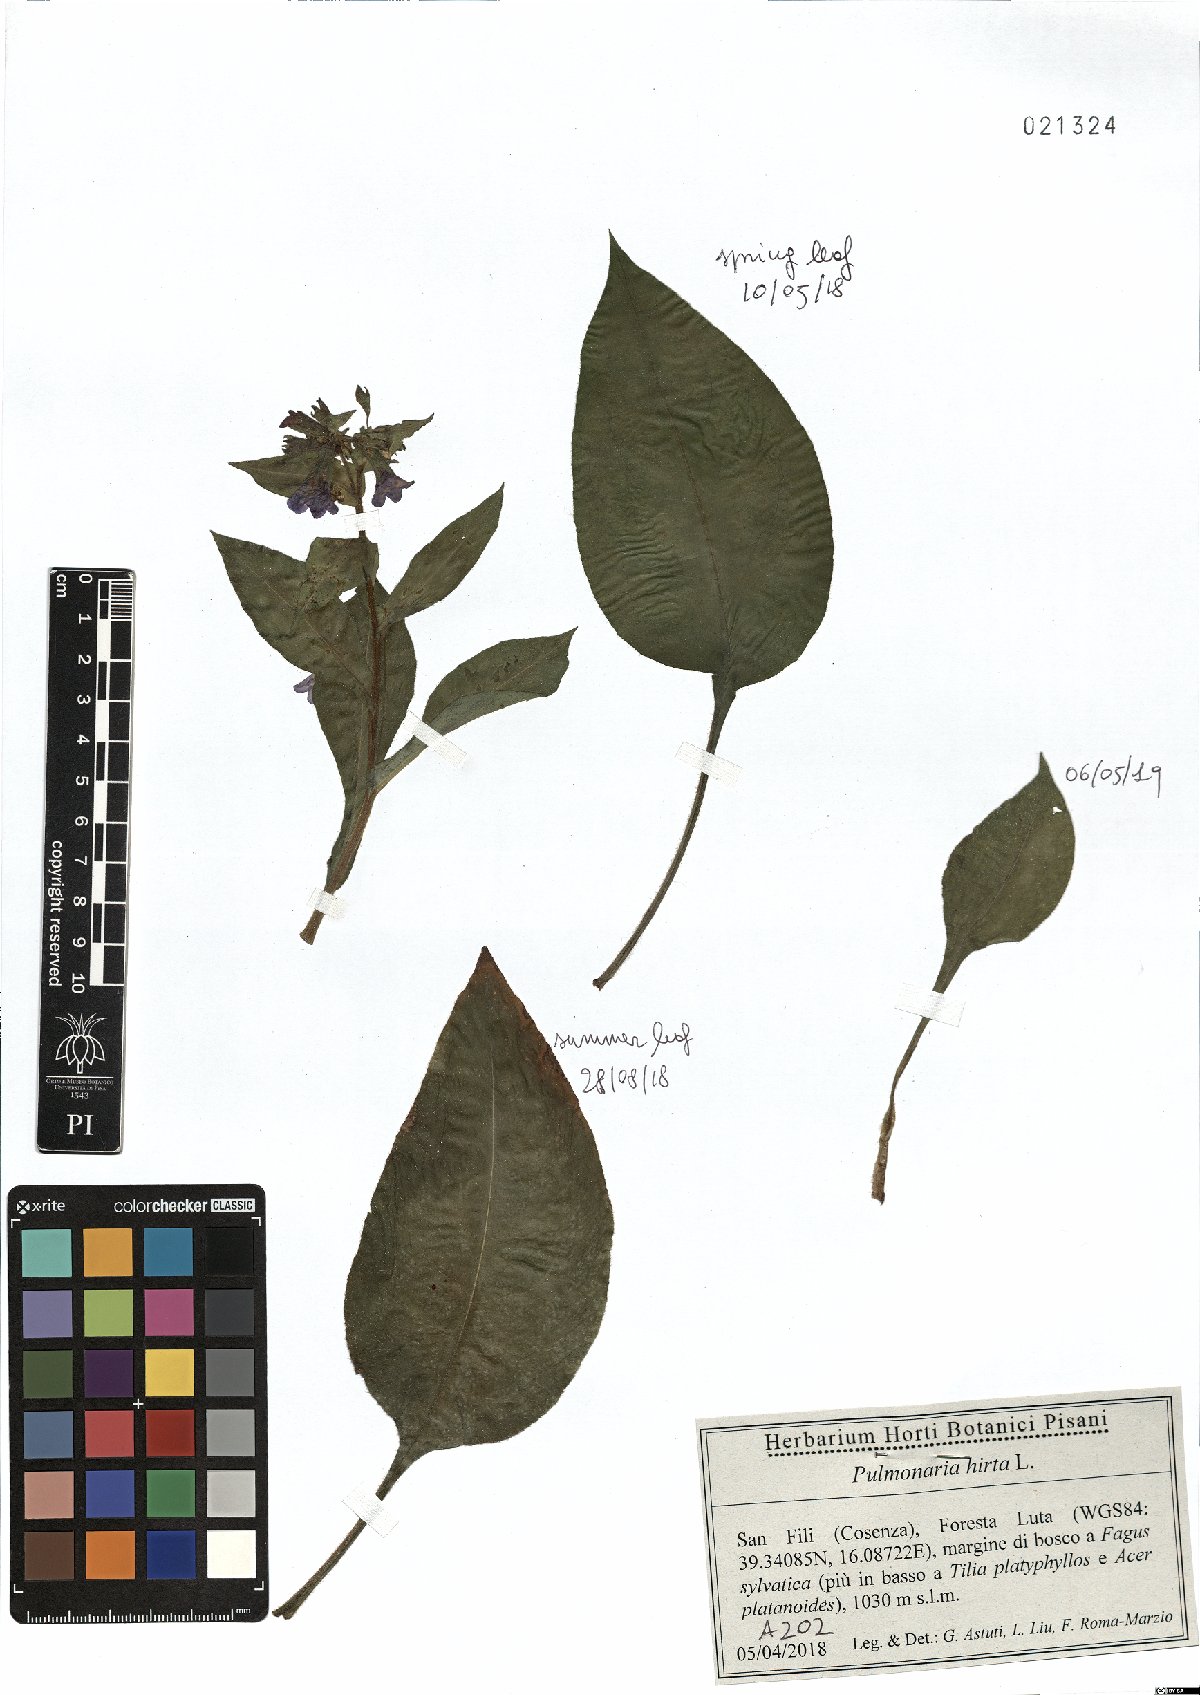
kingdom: Plantae
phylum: Tracheophyta
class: Magnoliopsida
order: Boraginales
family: Boraginaceae
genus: Pulmonaria
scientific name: Pulmonaria hirta
